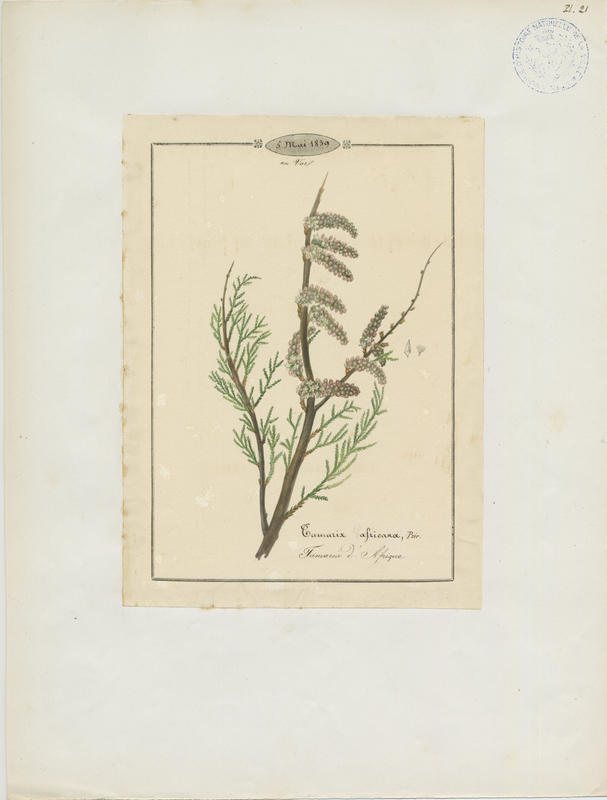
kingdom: Plantae
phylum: Tracheophyta
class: Magnoliopsida
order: Caryophyllales
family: Tamaricaceae
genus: Tamarix
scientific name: Tamarix africana
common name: African tamarisk
